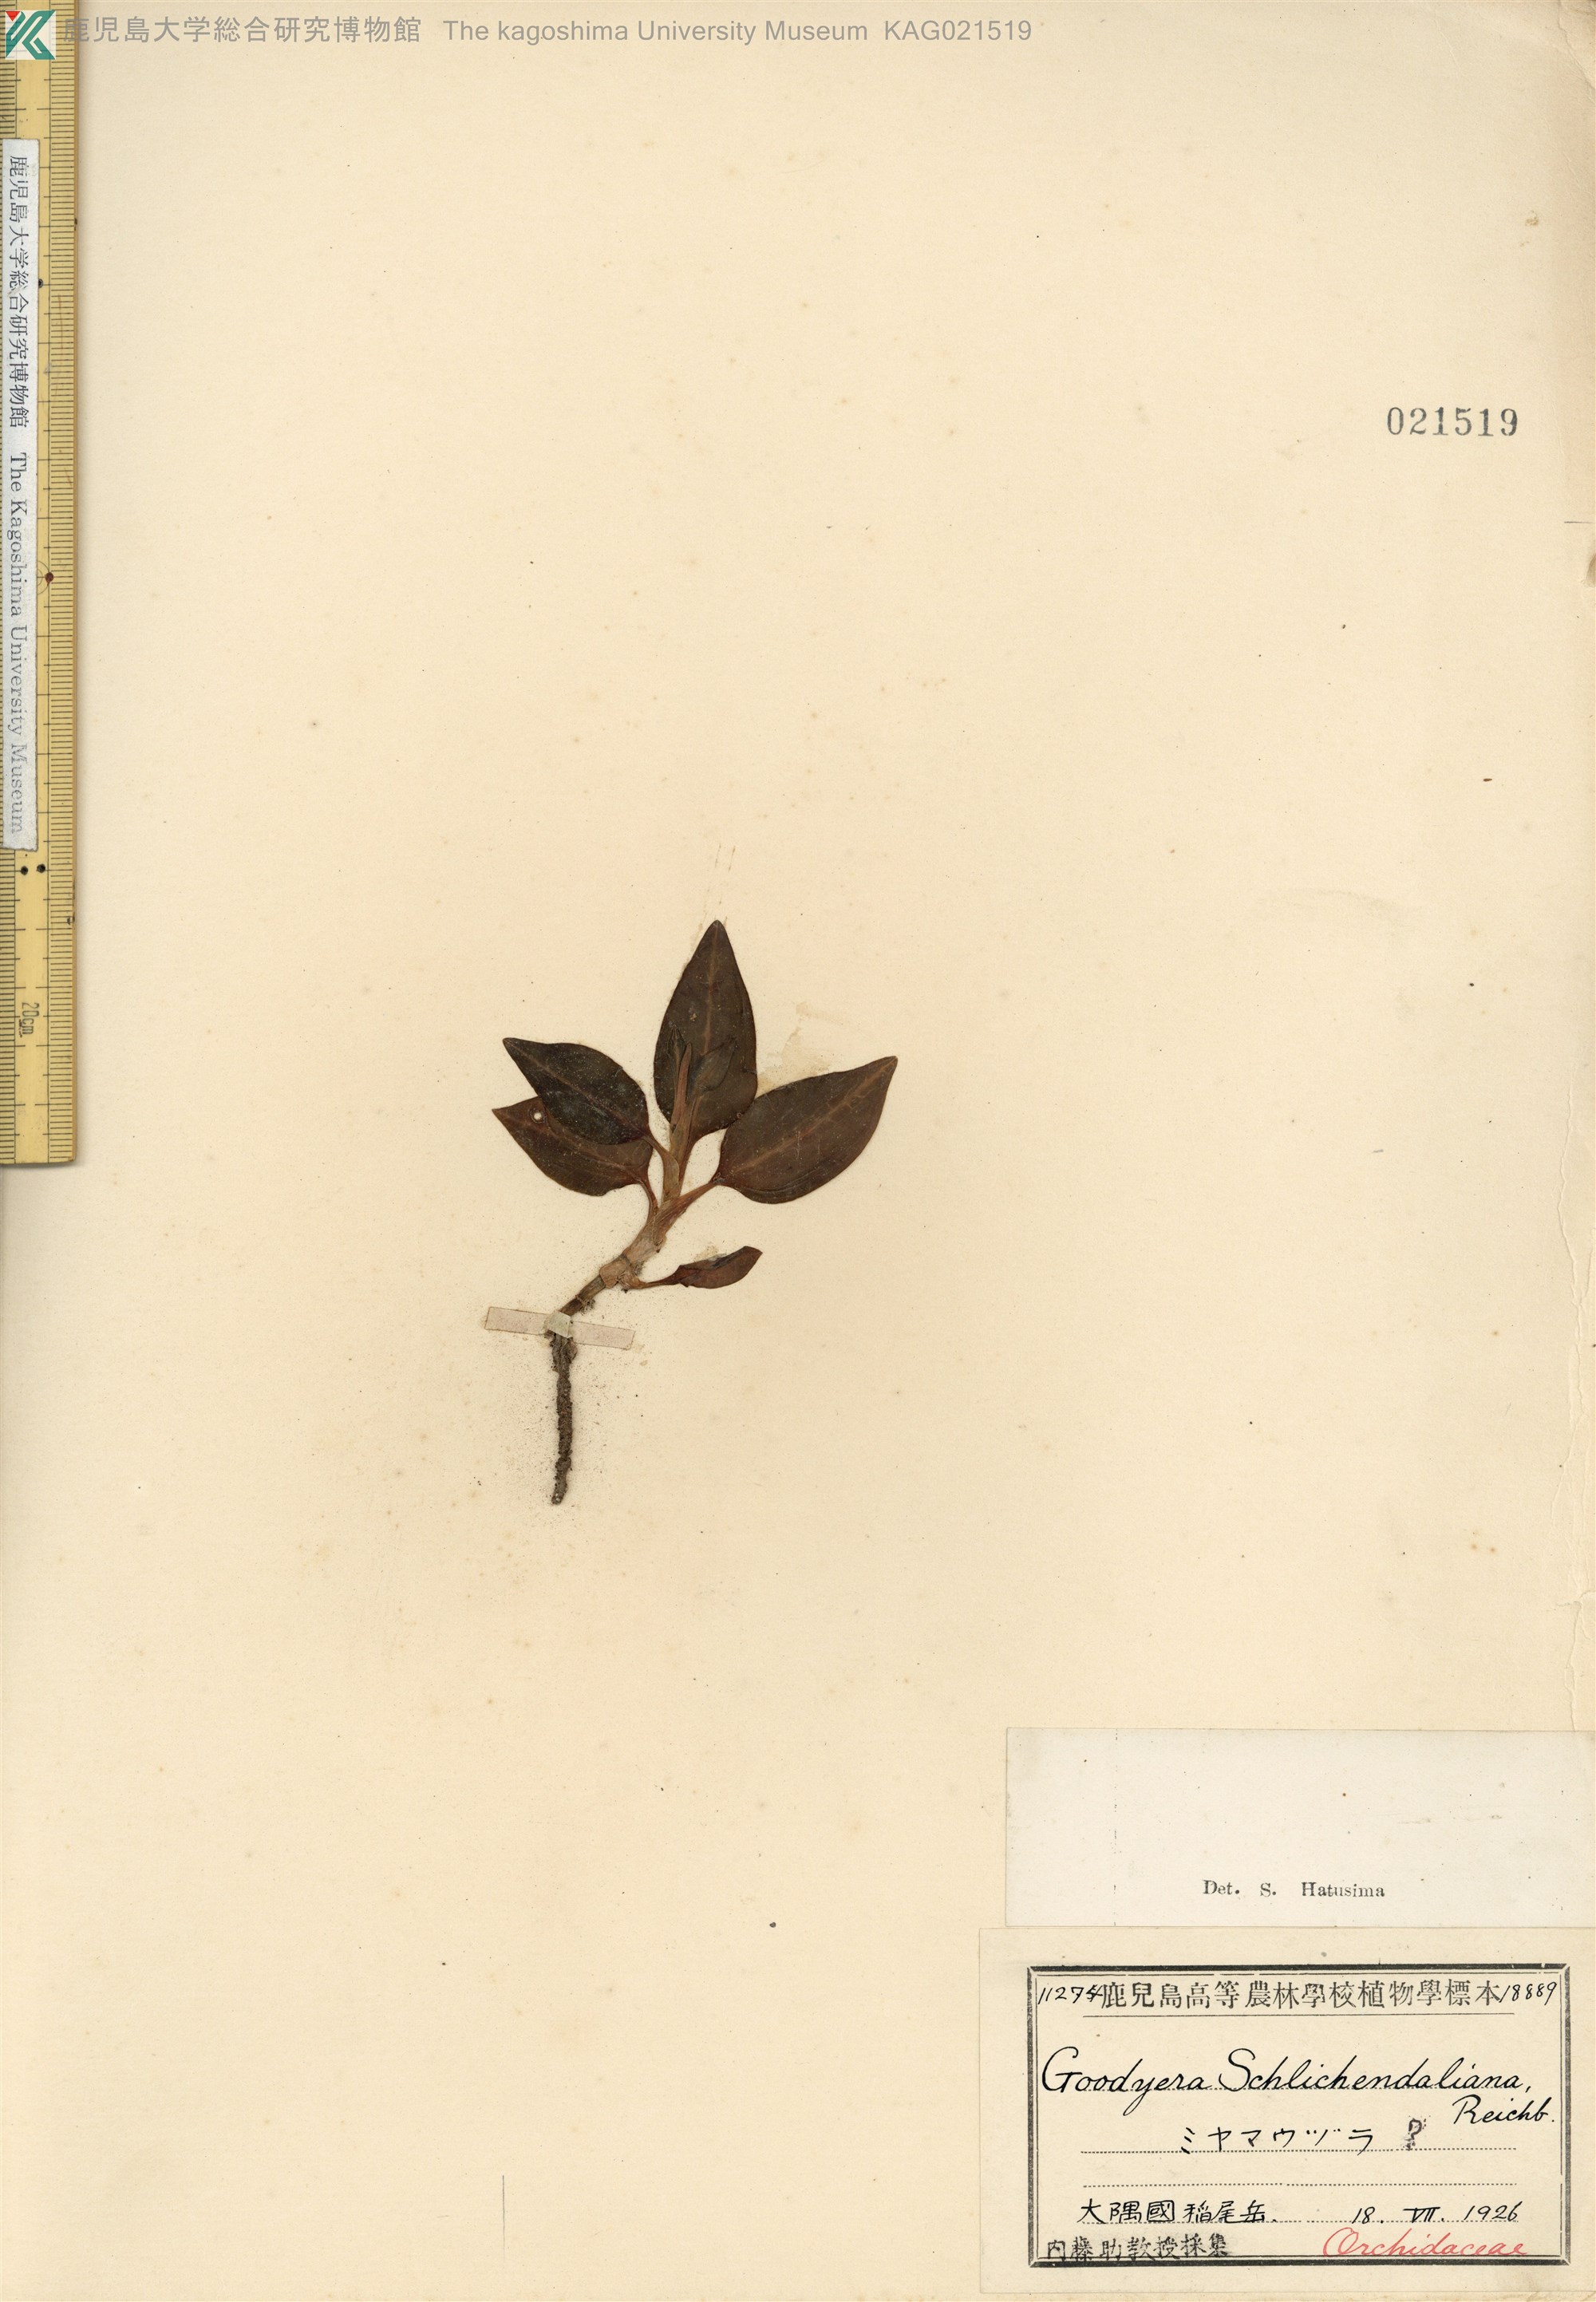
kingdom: Plantae
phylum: Tracheophyta
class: Liliopsida
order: Asparagales
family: Orchidaceae
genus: Goodyera
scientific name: Goodyera biflora
